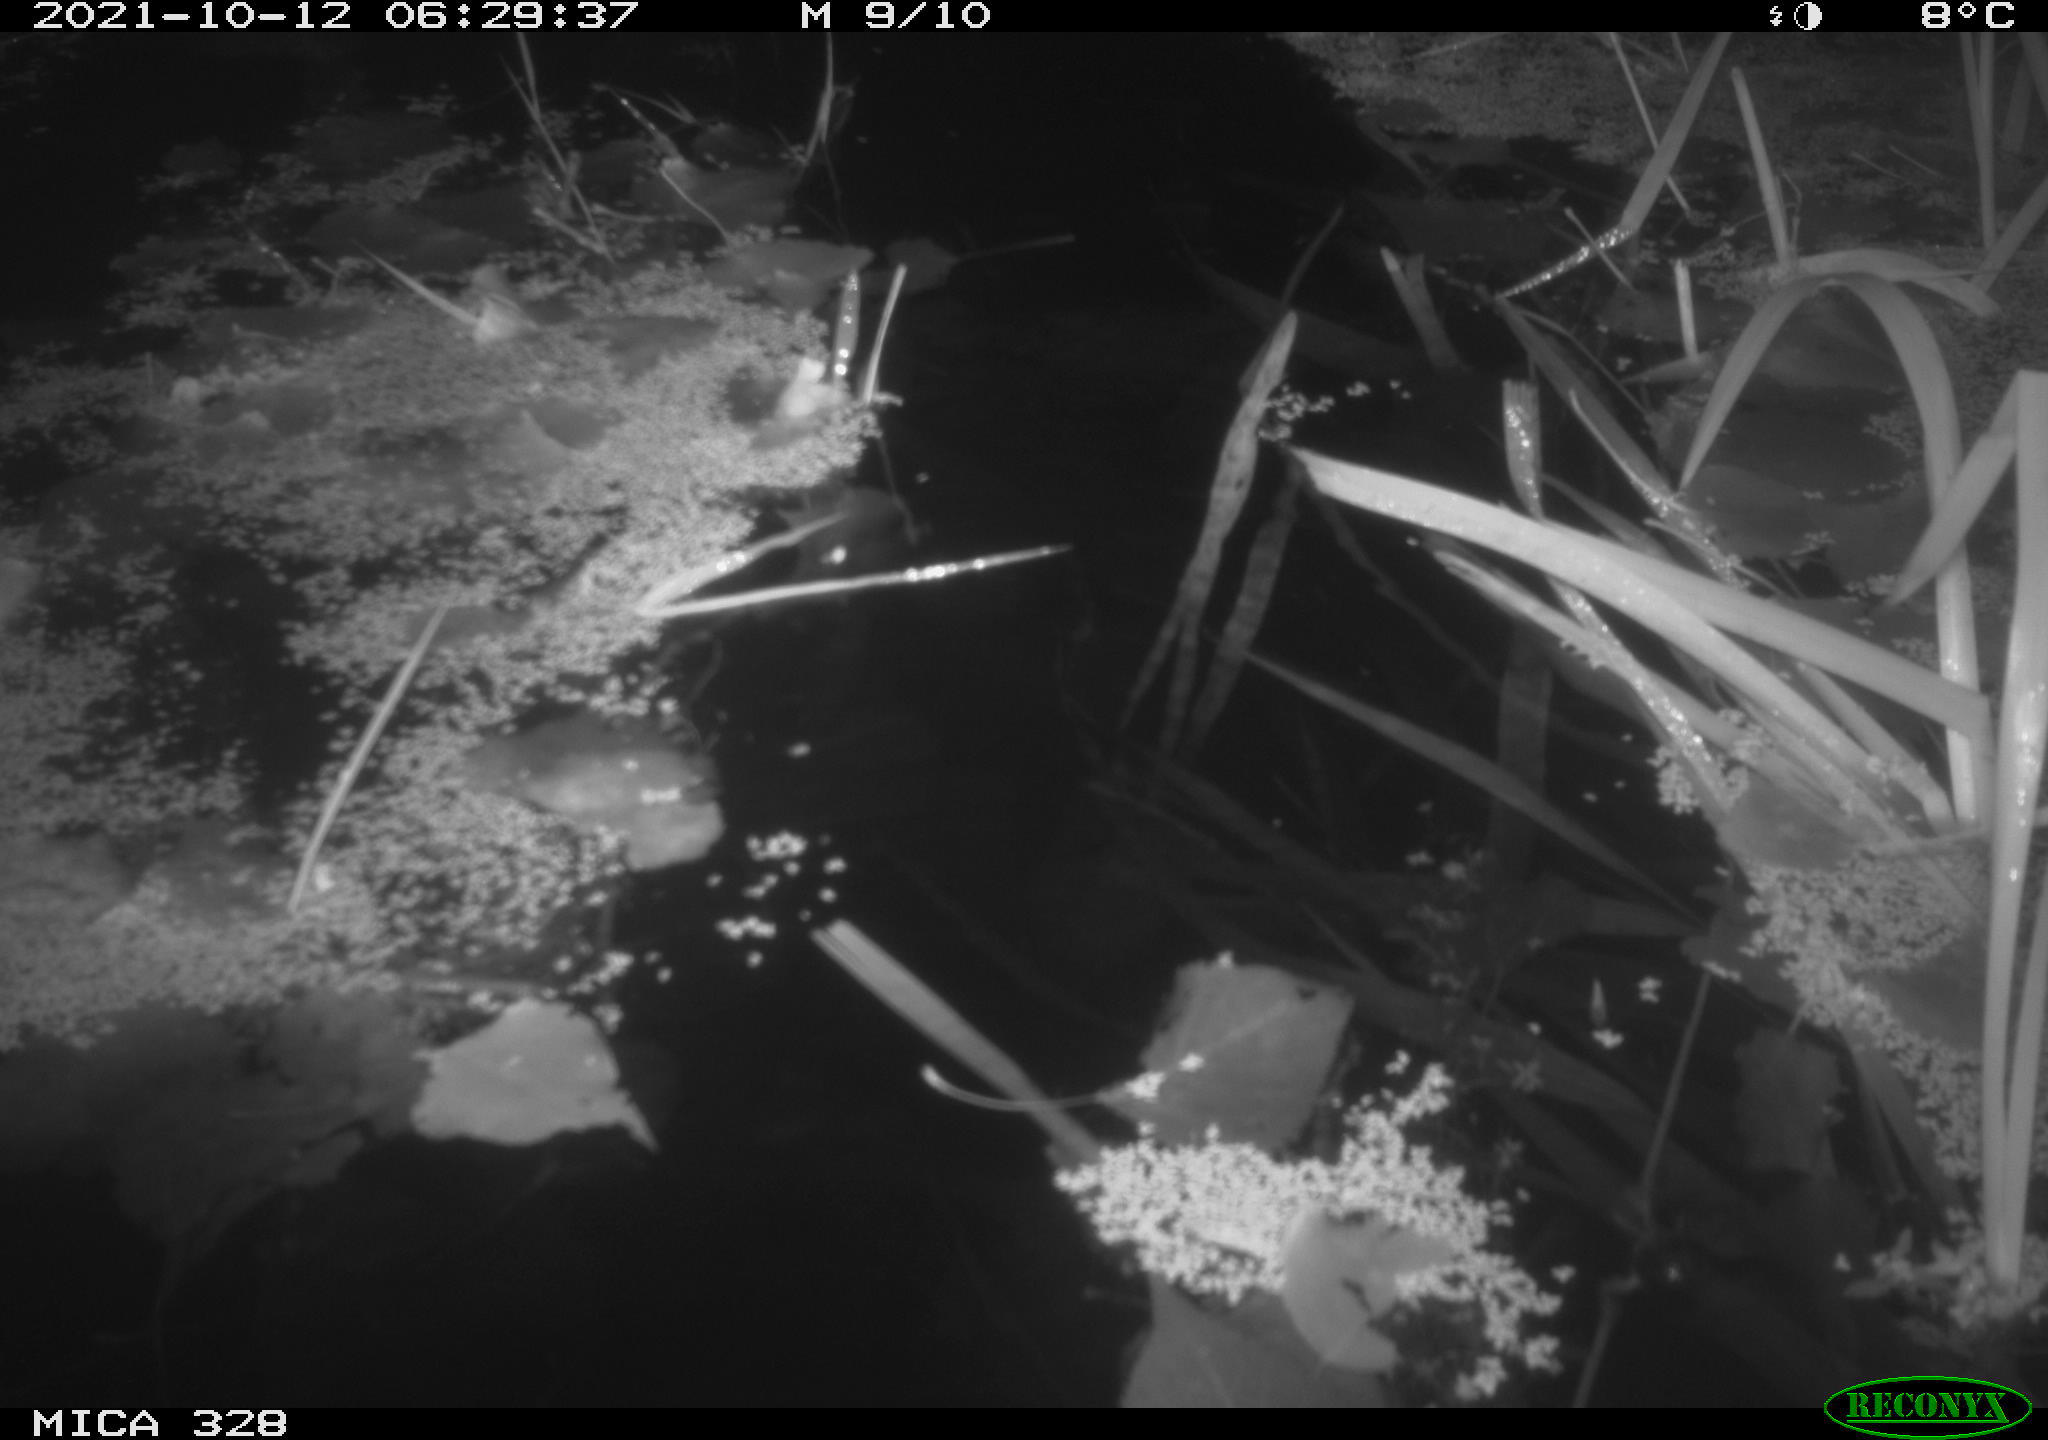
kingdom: Animalia
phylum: Chordata
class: Mammalia
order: Rodentia
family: Cricetidae
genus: Ondatra
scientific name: Ondatra zibethicus
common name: Muskrat
